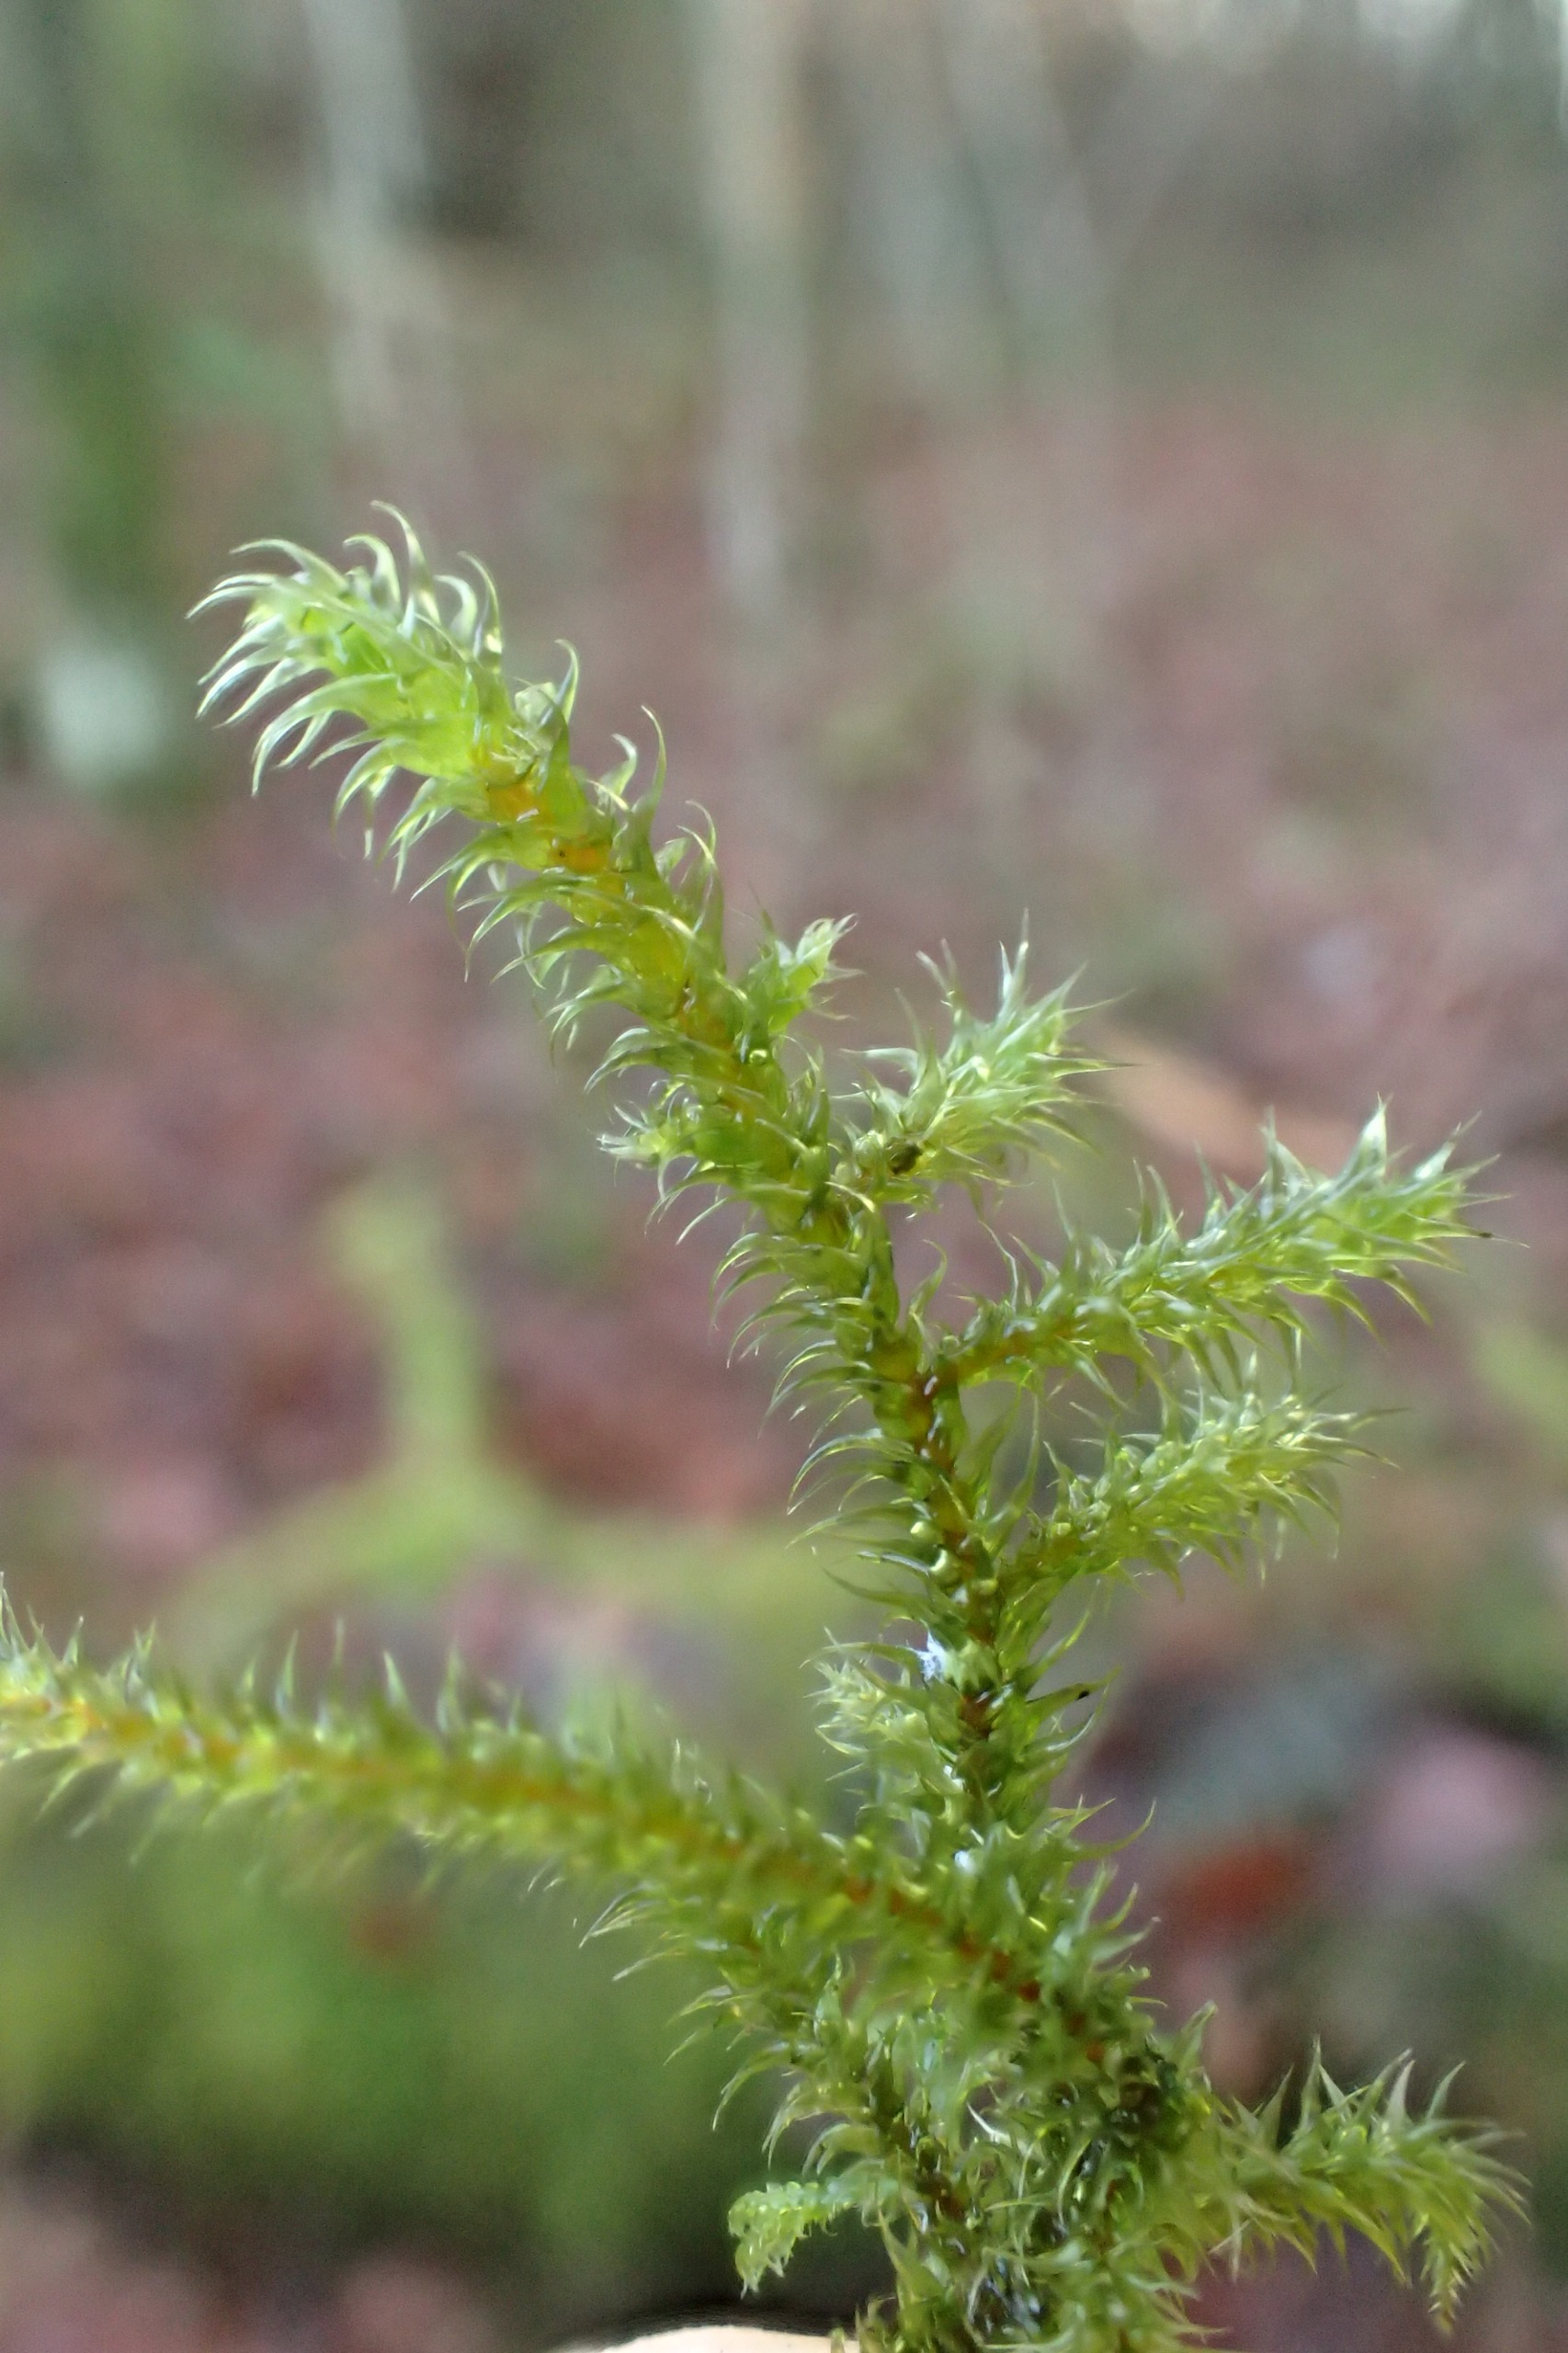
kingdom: Plantae
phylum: Bryophyta
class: Bryopsida
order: Hypnales
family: Hylocomiaceae
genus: Rhytidiadelphus
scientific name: Rhytidiadelphus loreus
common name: Ulvefod-kransemos
